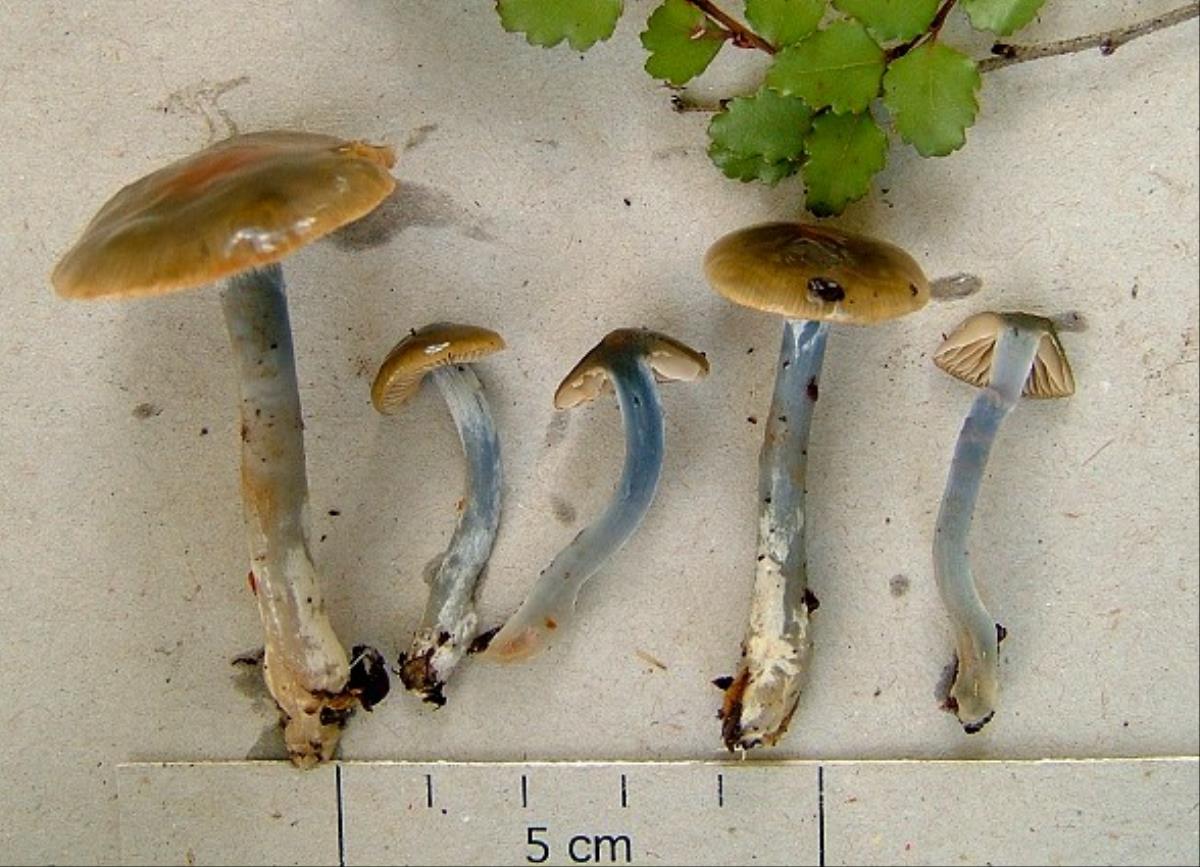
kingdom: Fungi
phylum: Basidiomycota
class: Agaricomycetes
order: Agaricales
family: Cortinariaceae
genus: Cortinarius
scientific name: Cortinarius viscostriatus
